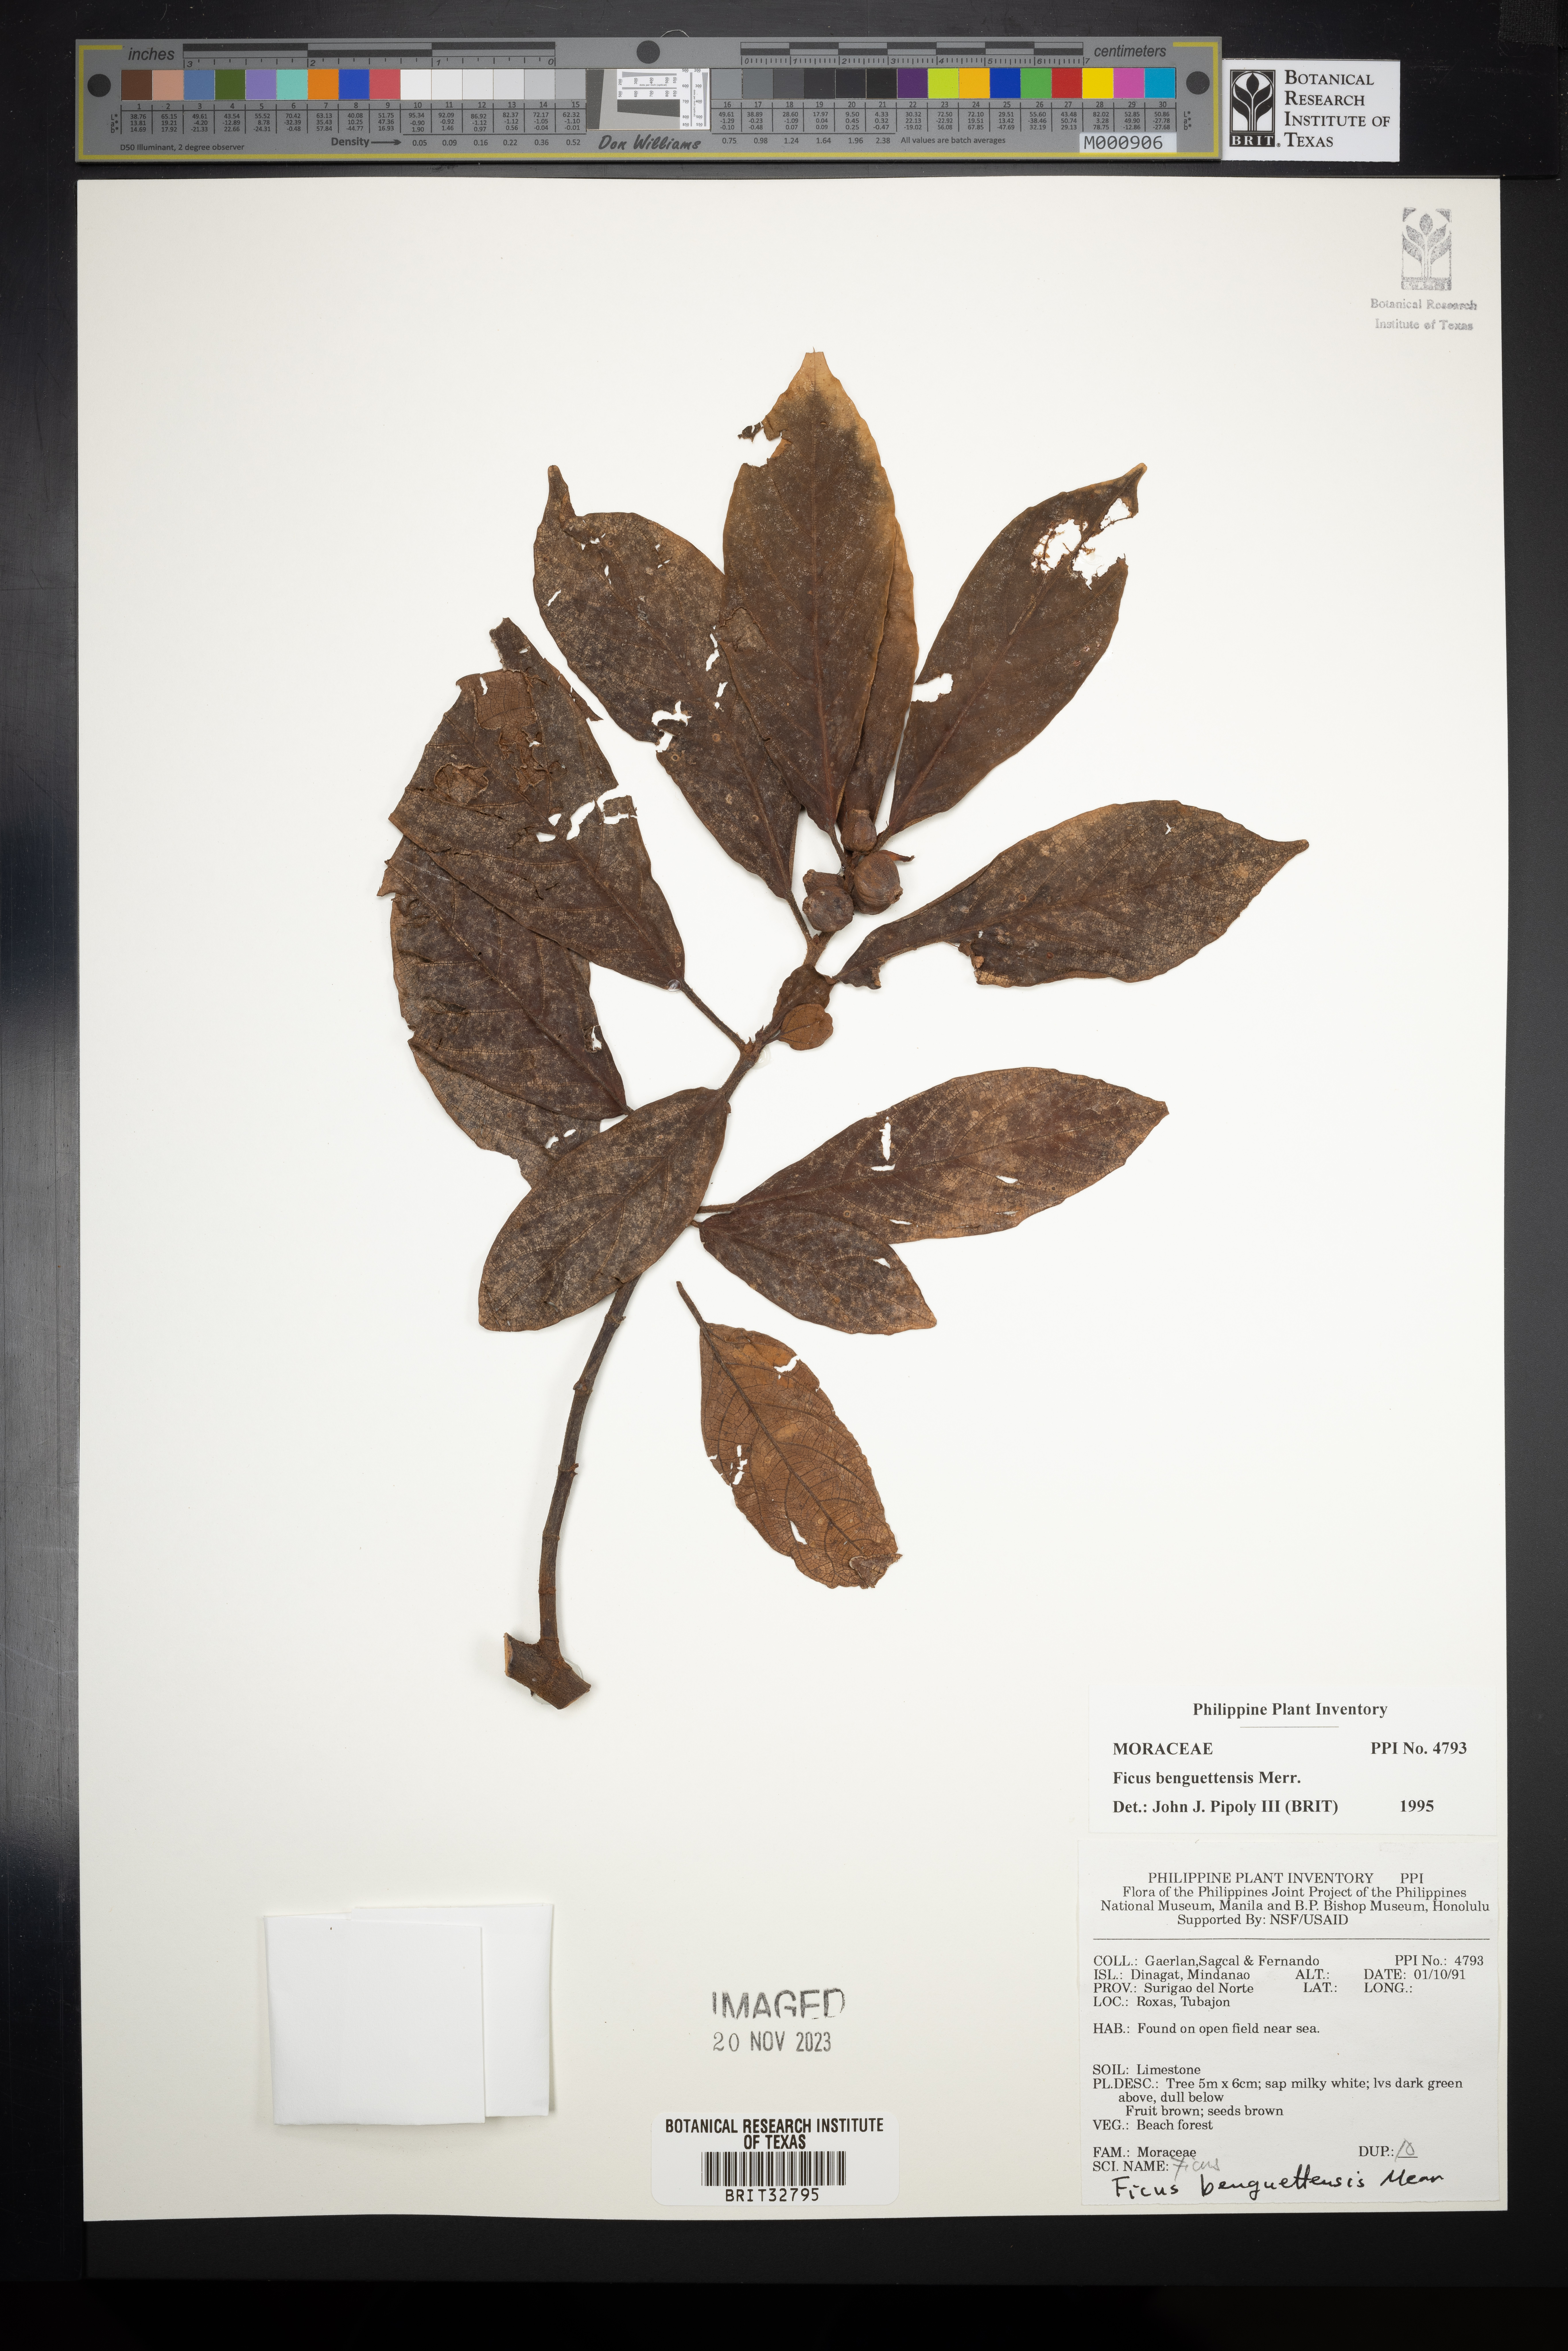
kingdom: Plantae
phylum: Tracheophyta
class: Magnoliopsida
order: Rosales
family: Moraceae
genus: Ficus
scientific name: Ficus benguetensis
